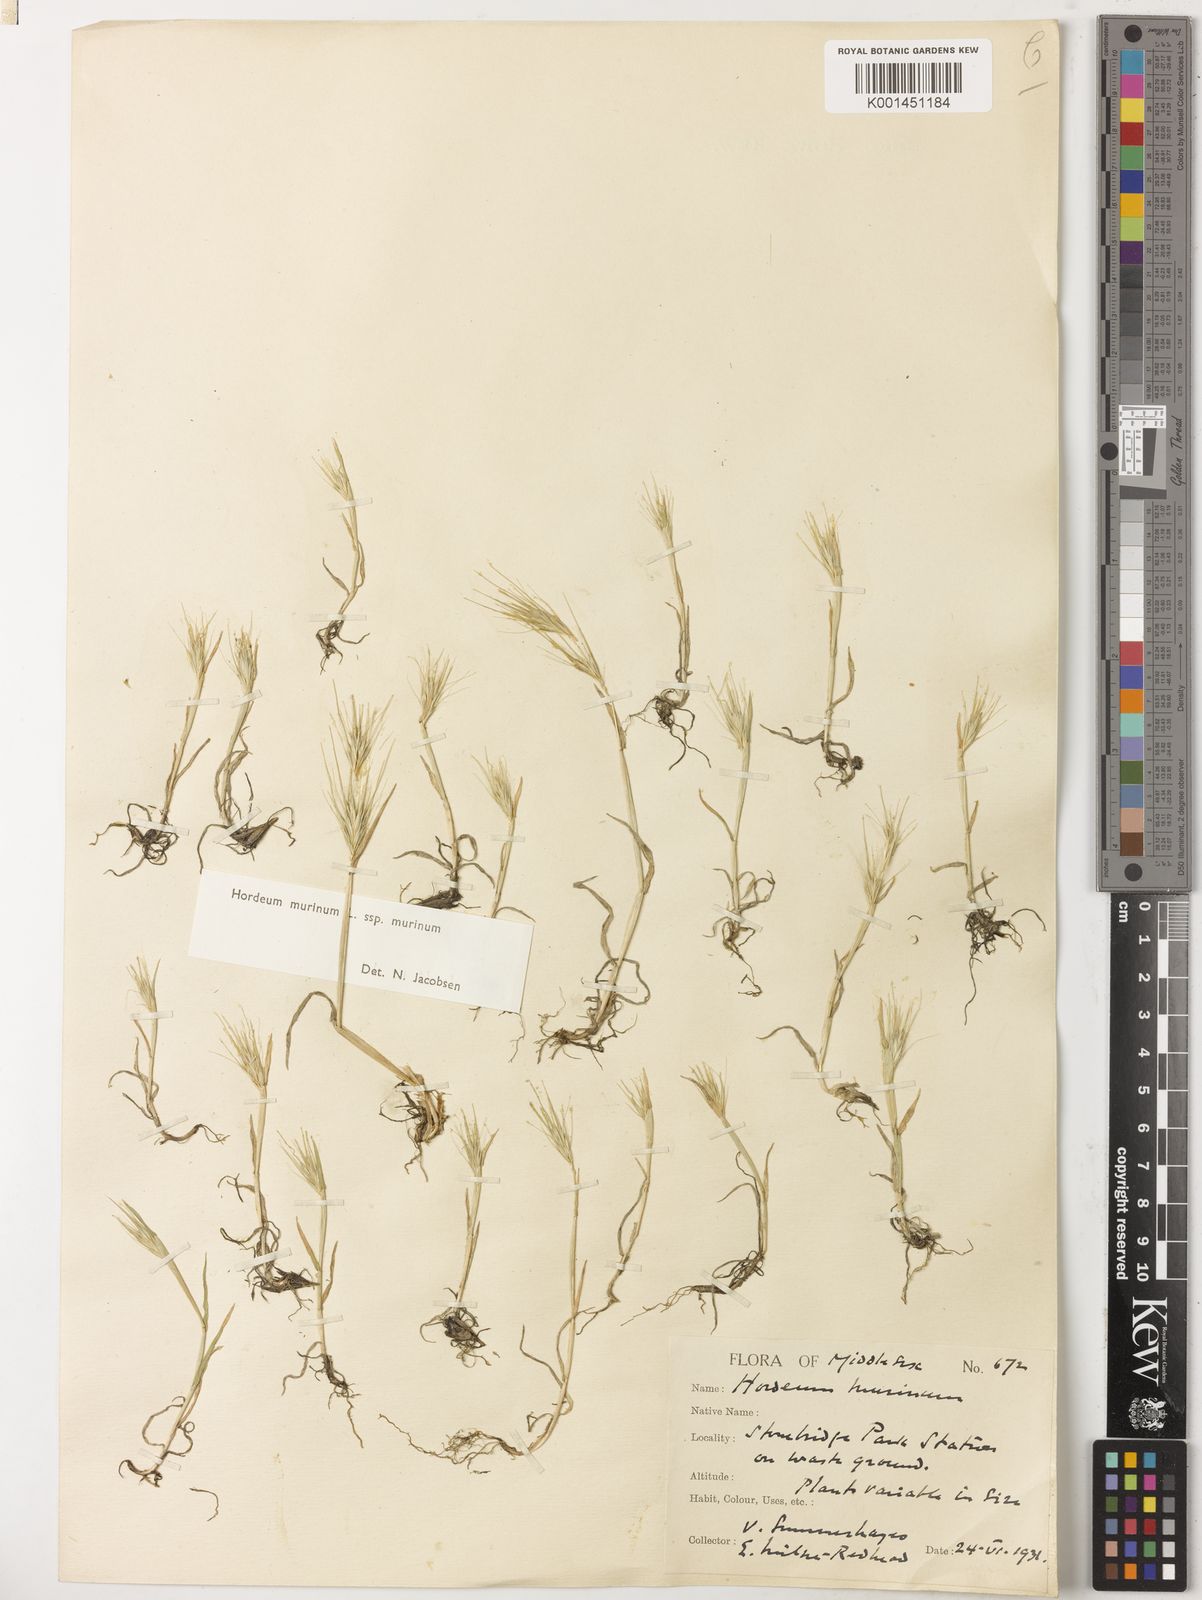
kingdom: Plantae
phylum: Tracheophyta
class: Liliopsida
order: Poales
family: Poaceae
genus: Hordeum
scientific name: Hordeum murinum
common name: Wall barley
